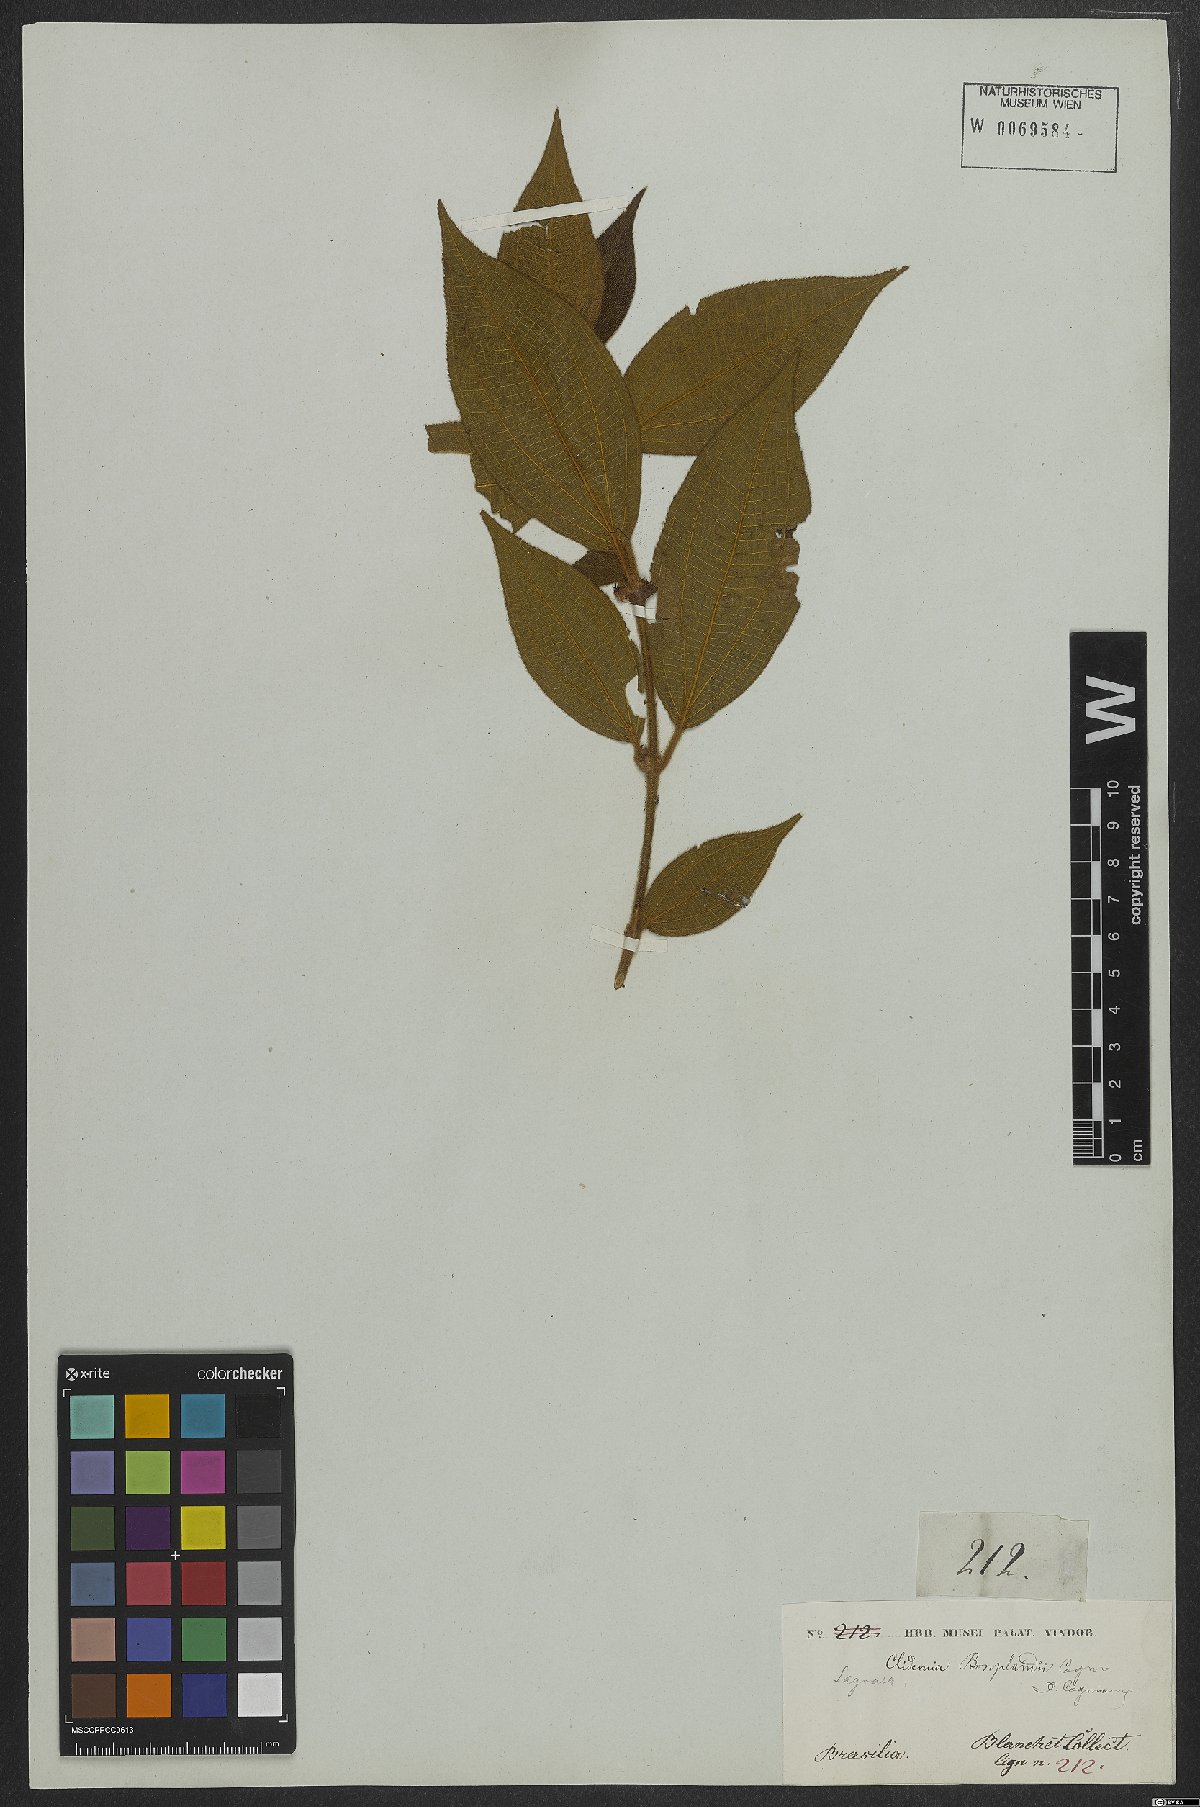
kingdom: Plantae
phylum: Tracheophyta
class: Magnoliopsida
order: Myrtales
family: Melastomataceae
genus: Miconia
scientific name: Miconia debilis
